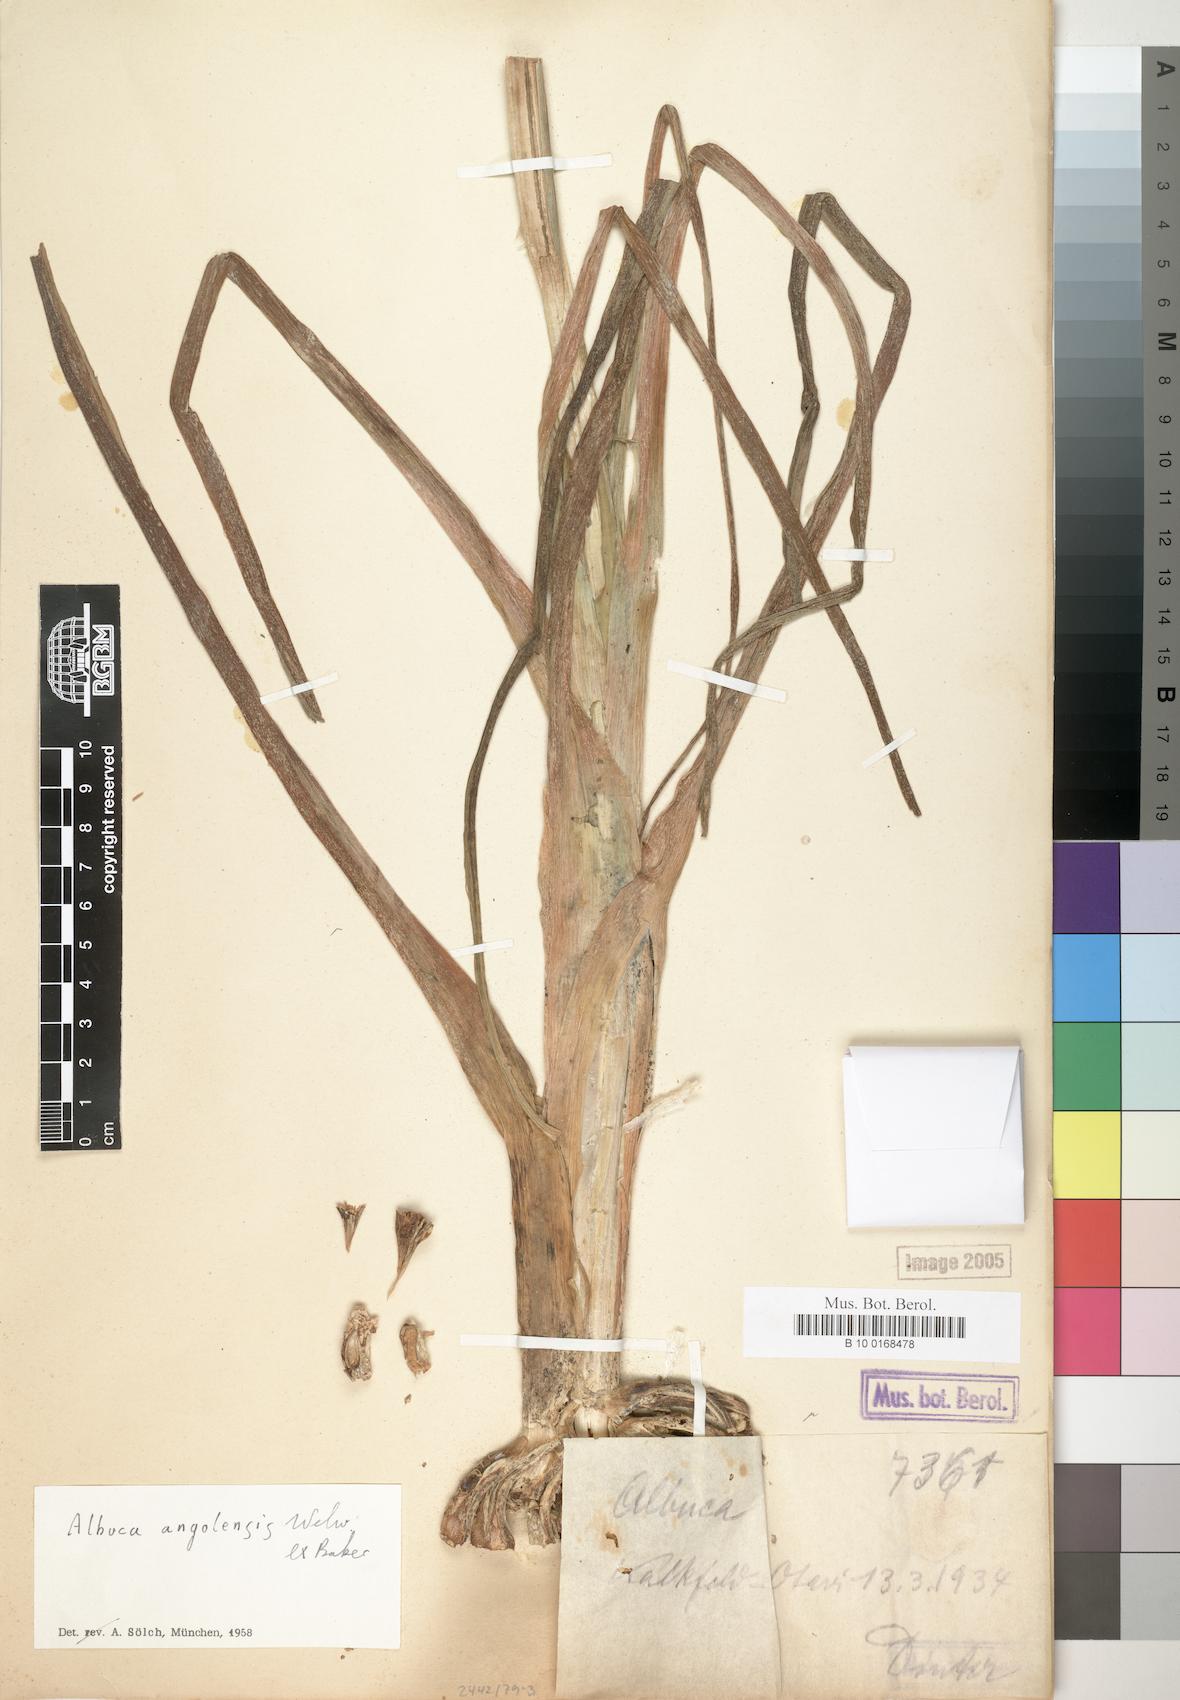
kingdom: Plantae
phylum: Tracheophyta
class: Liliopsida
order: Asparagales
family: Asparagaceae
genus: Albuca
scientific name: Albuca abyssinica
